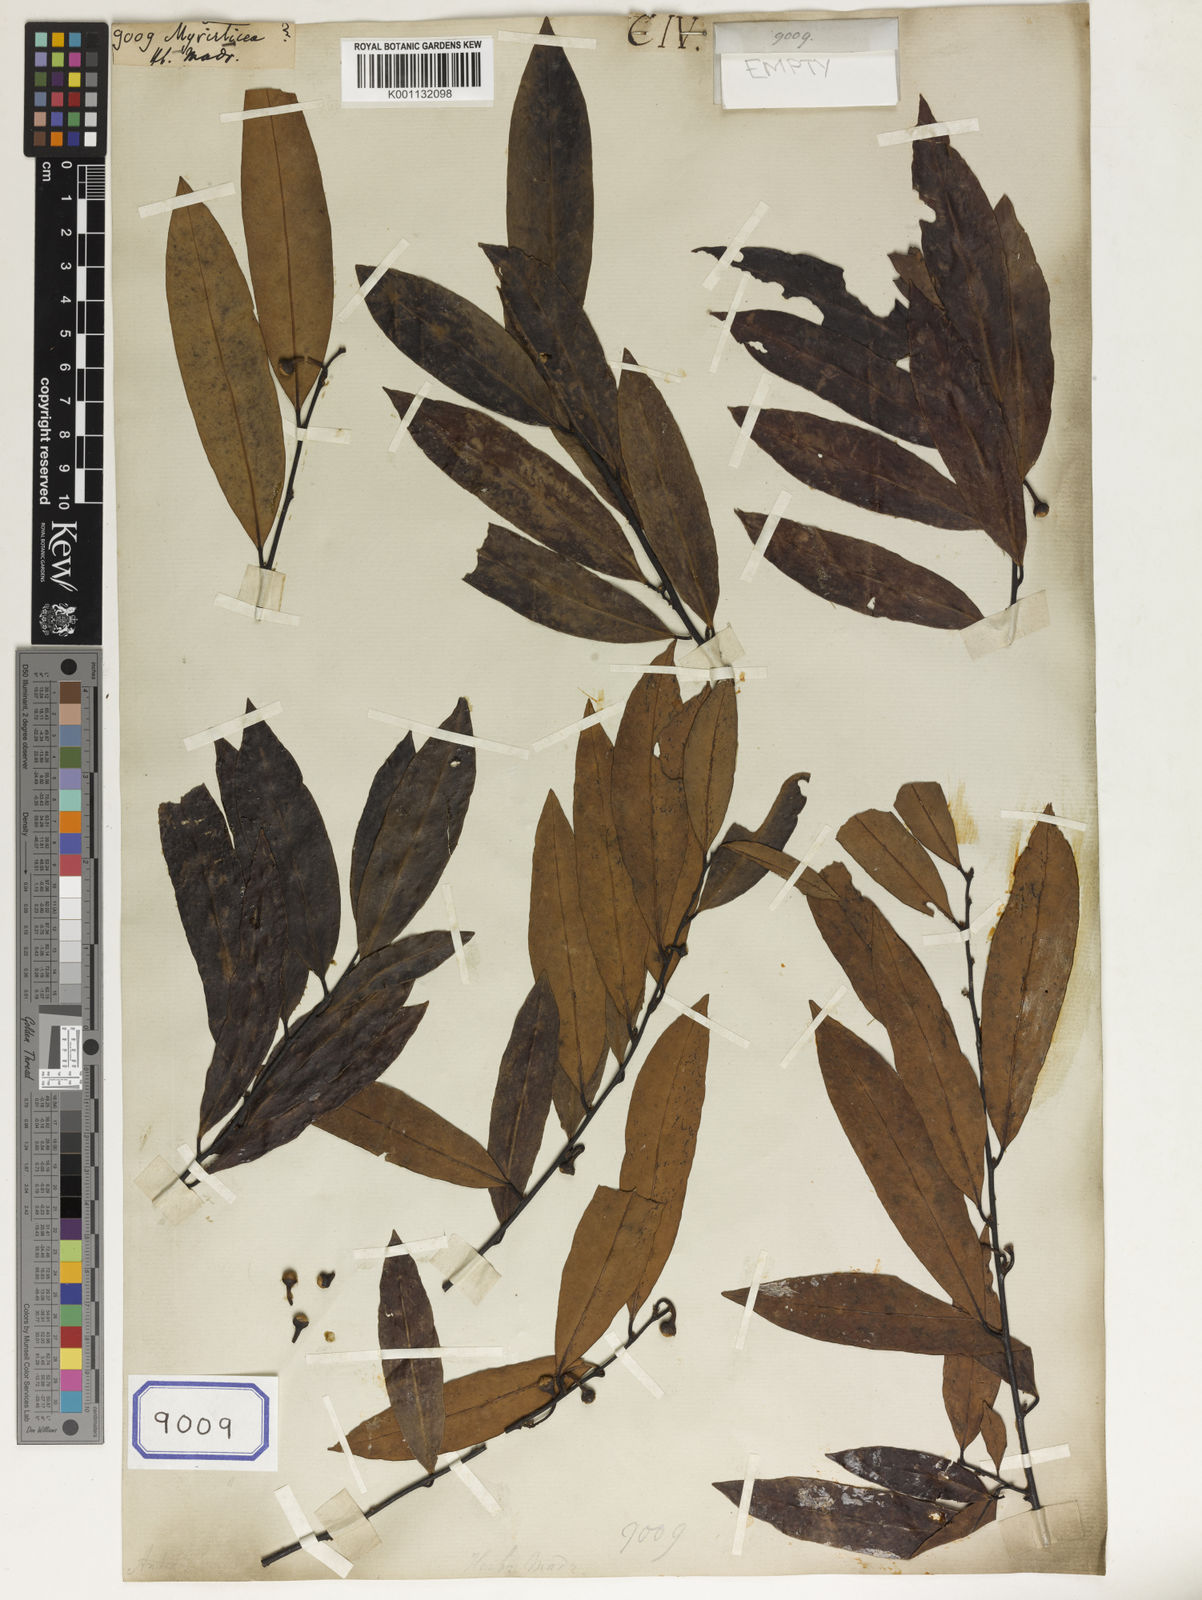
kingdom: Plantae
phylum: Tracheophyta
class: Magnoliopsida
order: Magnoliales
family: Myristicaceae
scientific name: Myristicaceae
